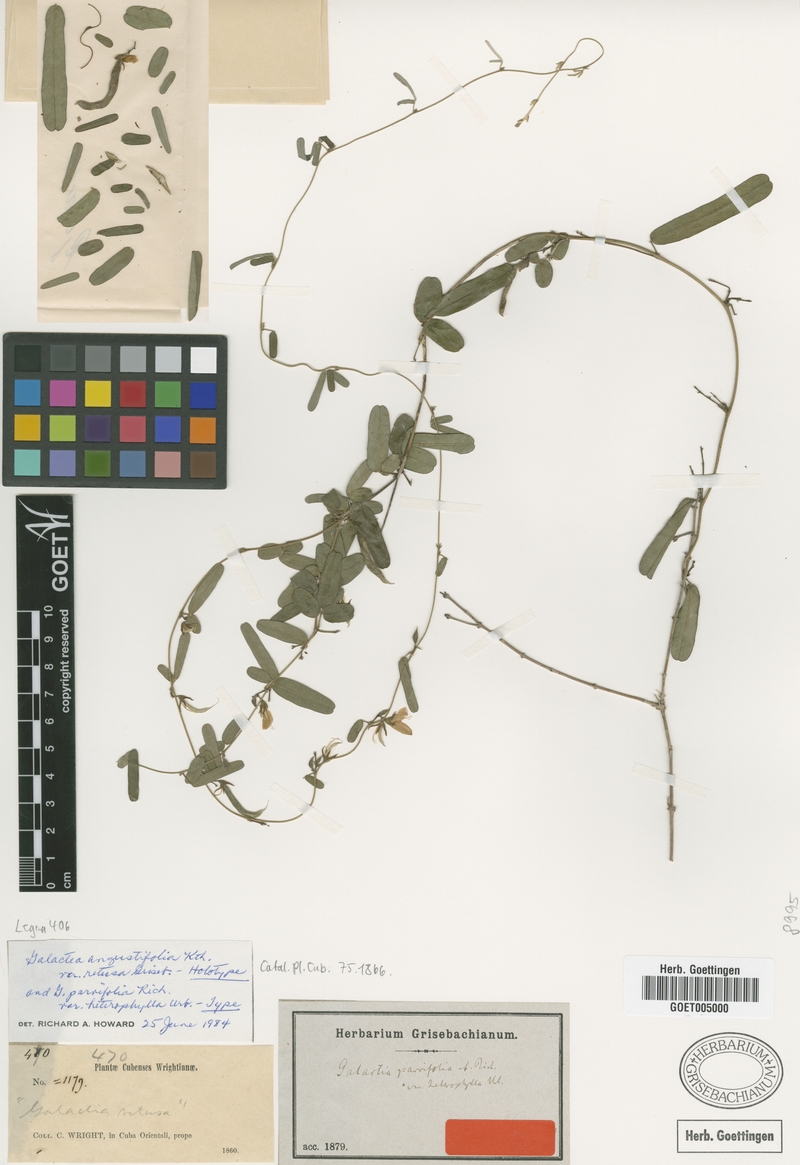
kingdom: Plantae
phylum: Tracheophyta
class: Magnoliopsida
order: Fabales
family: Fabaceae
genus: Galactia
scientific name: Galactia regularis
